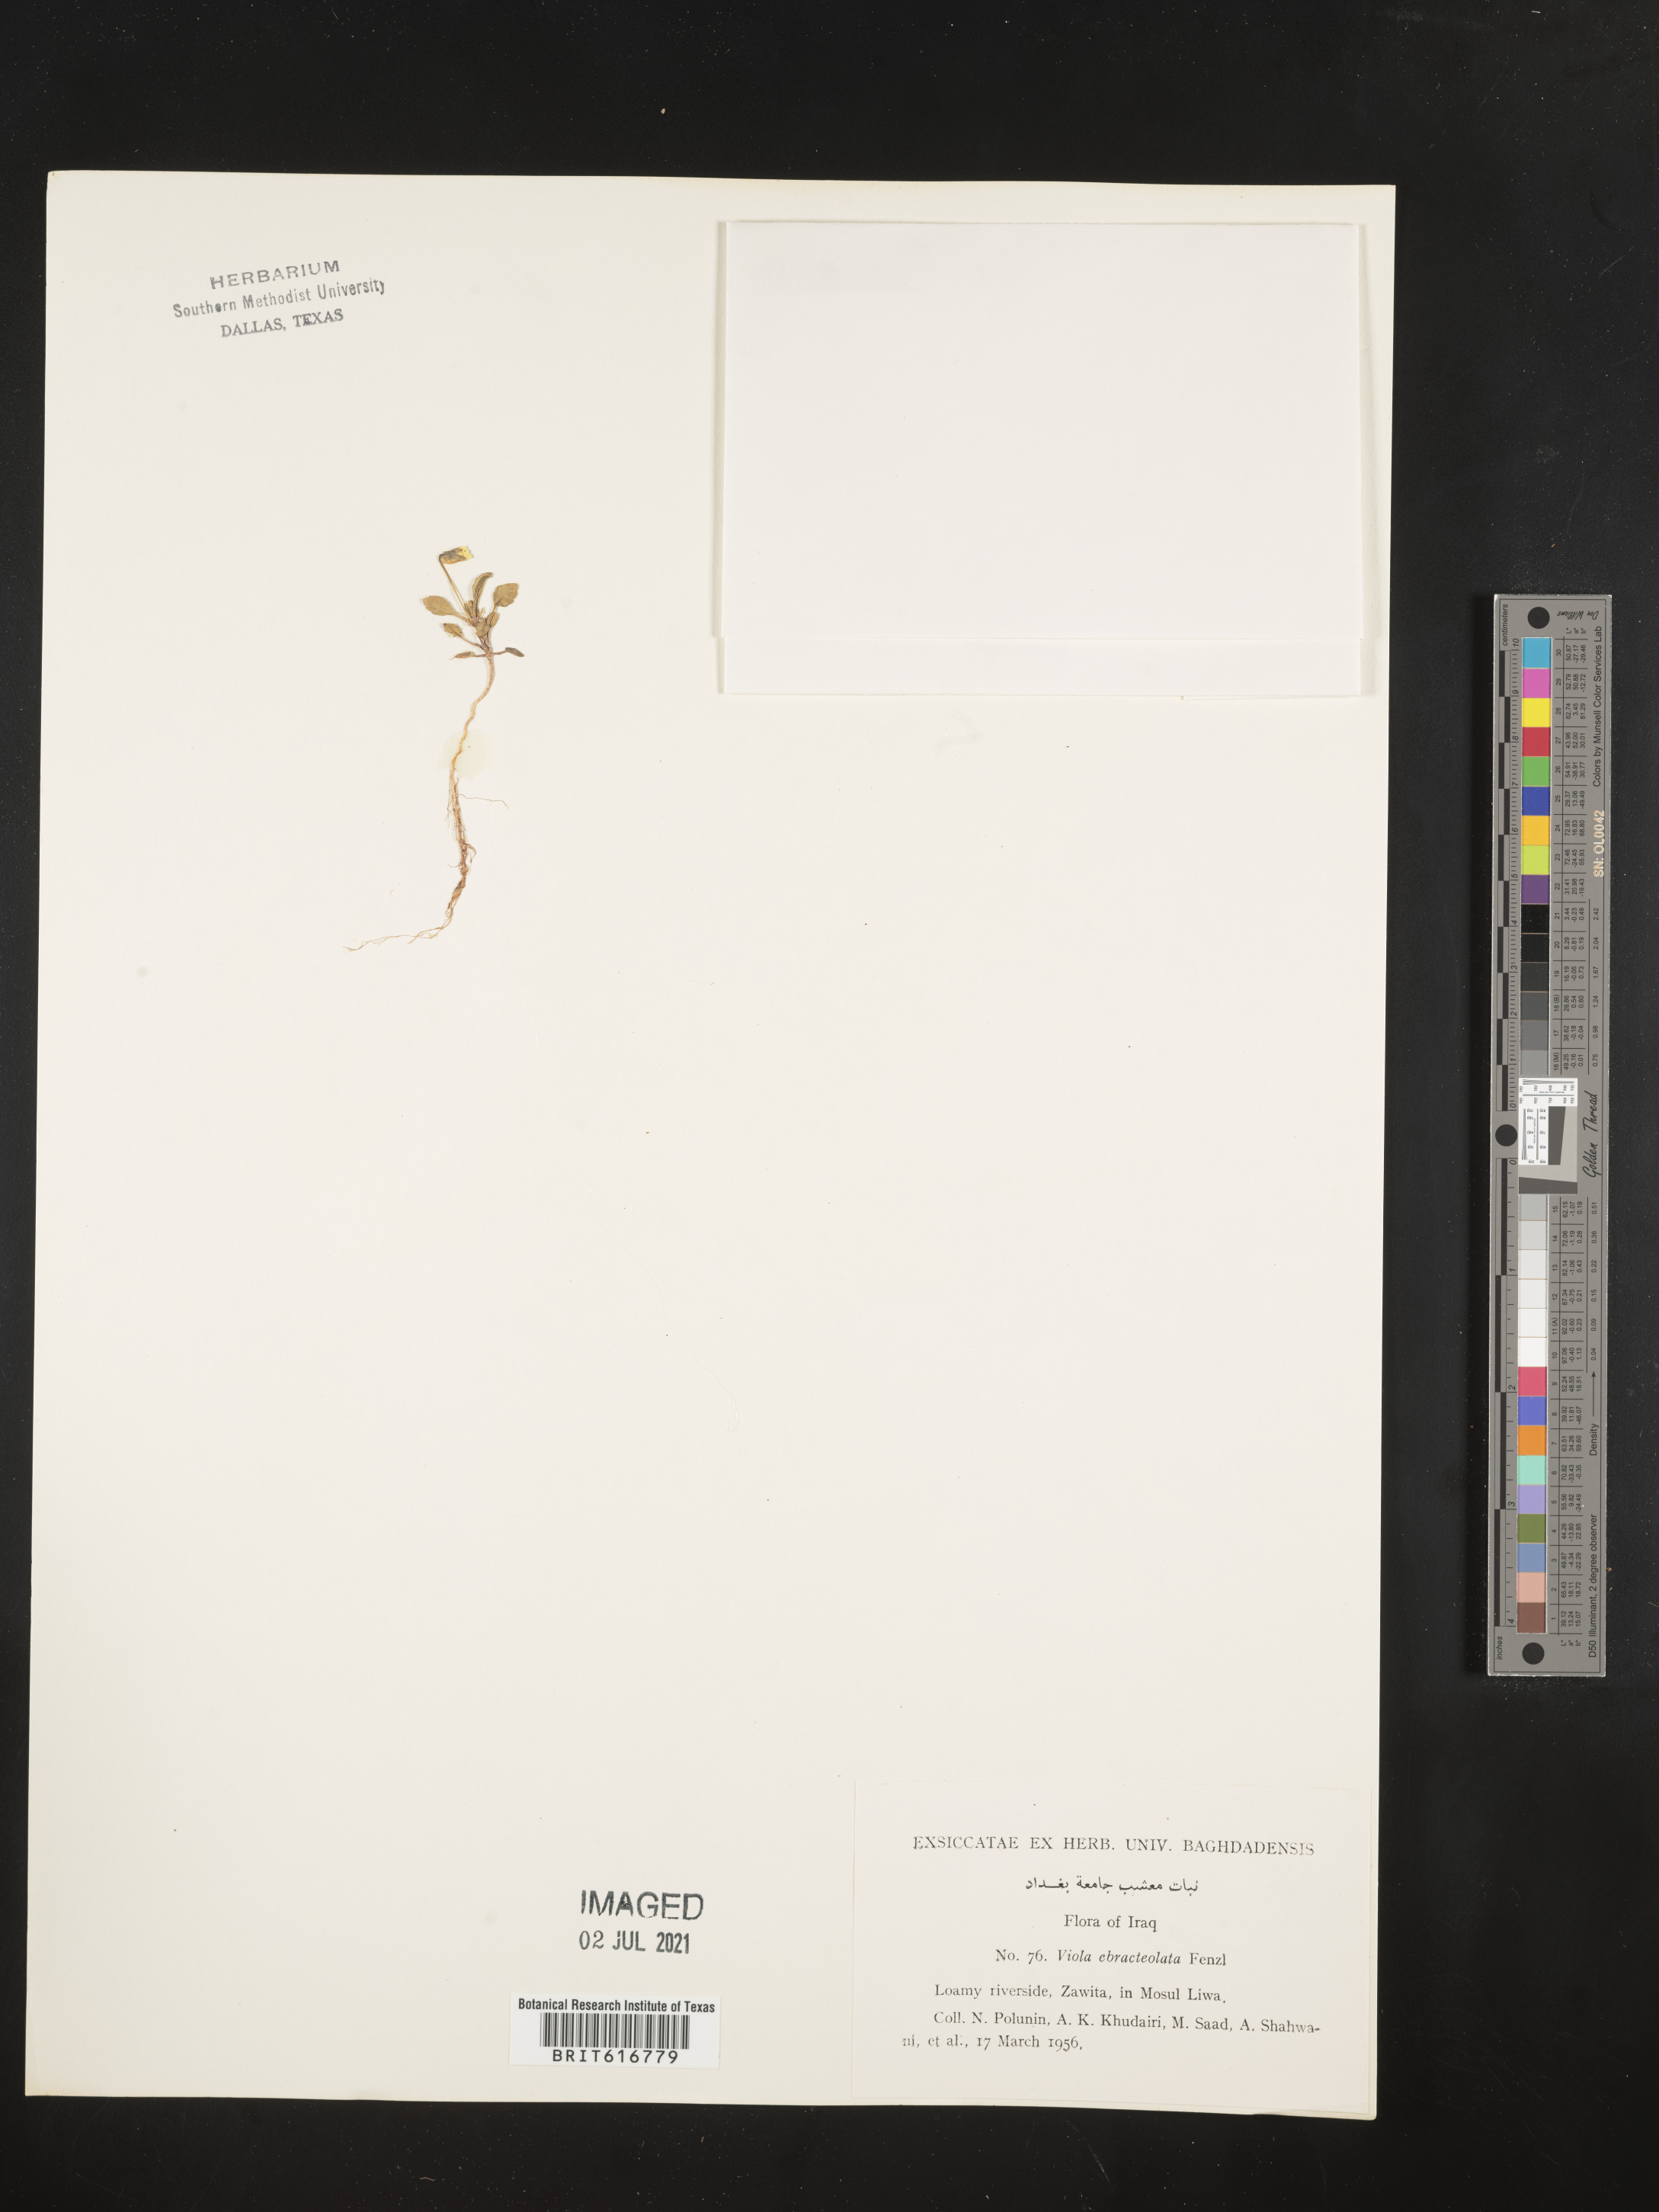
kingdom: Plantae
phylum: Tracheophyta
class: Magnoliopsida
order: Malpighiales
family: Violaceae
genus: Viola
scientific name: Viola modesta
